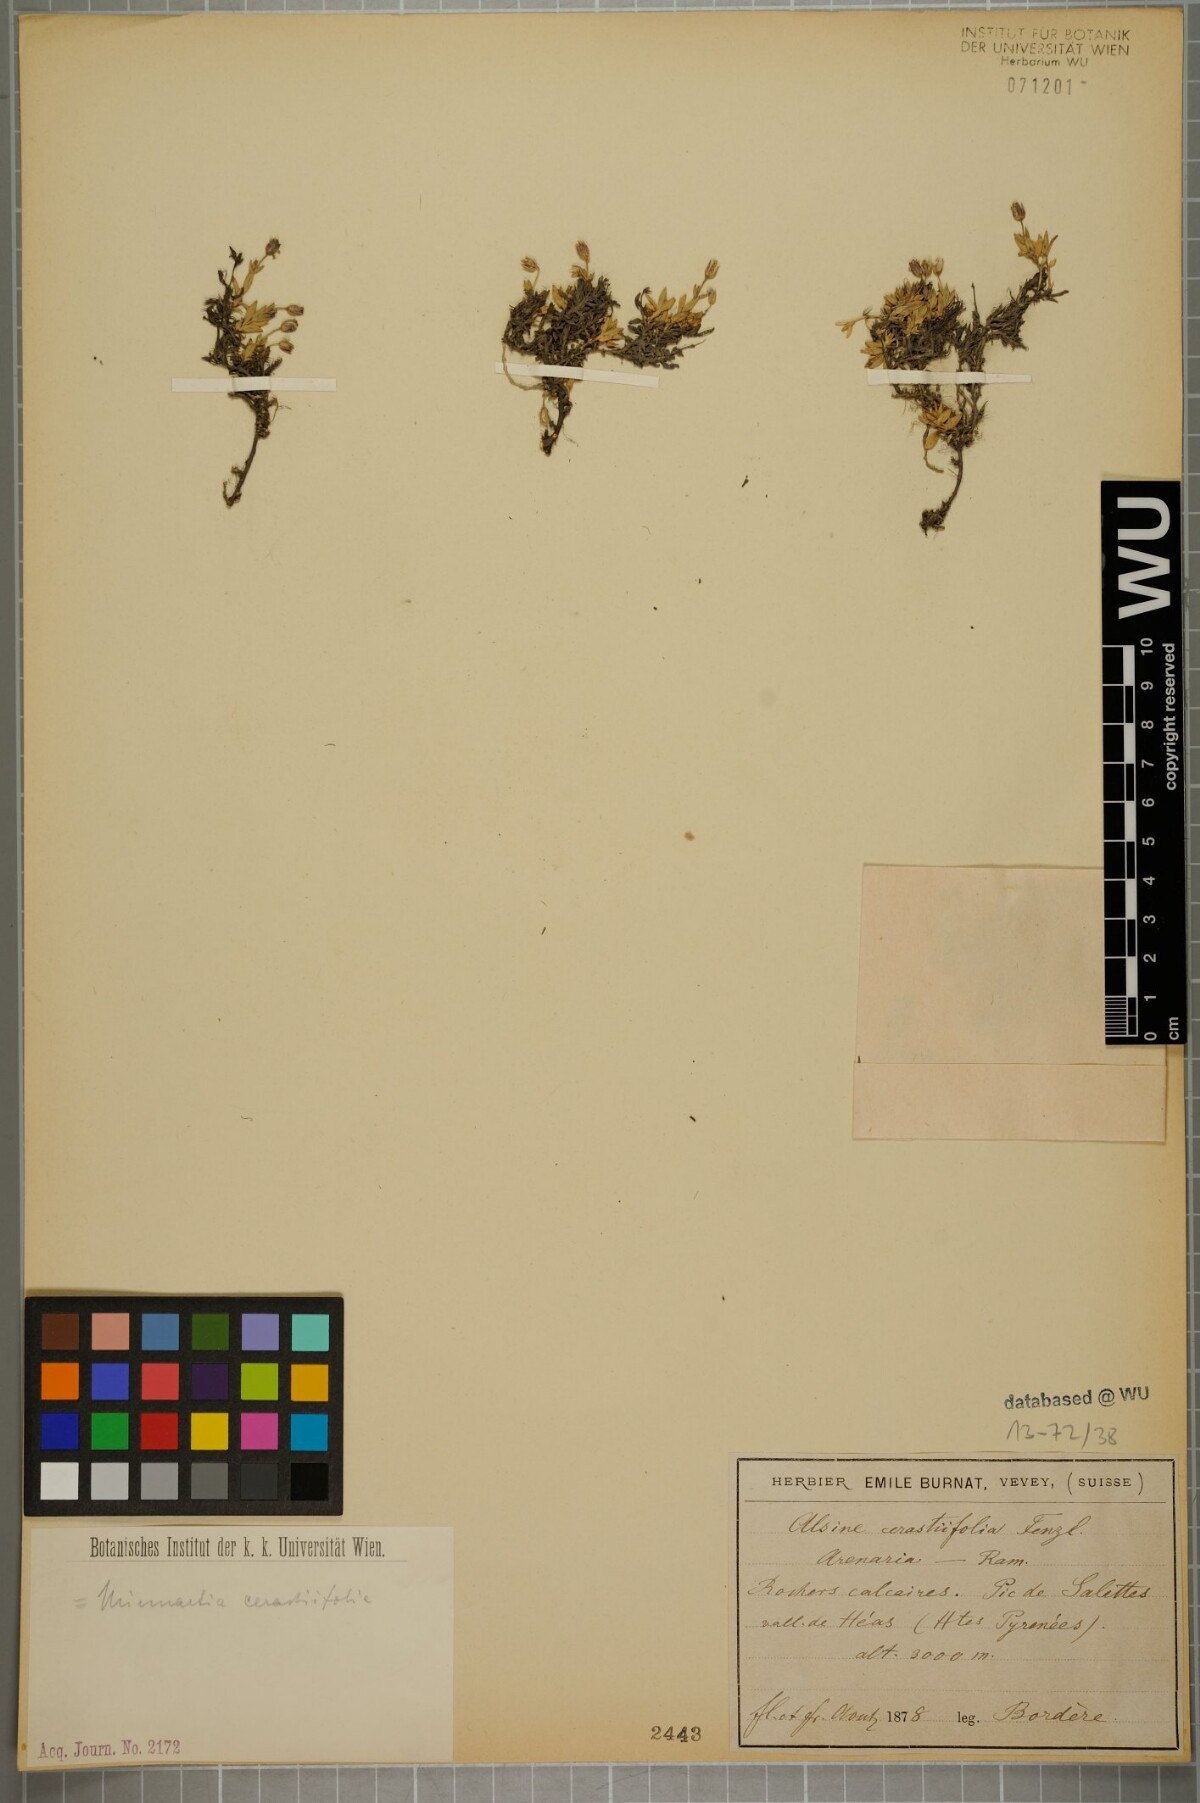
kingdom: Plantae
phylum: Tracheophyta
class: Magnoliopsida
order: Caryophyllales
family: Caryophyllaceae
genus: Facchinia
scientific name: Facchinia cerastiifolia
